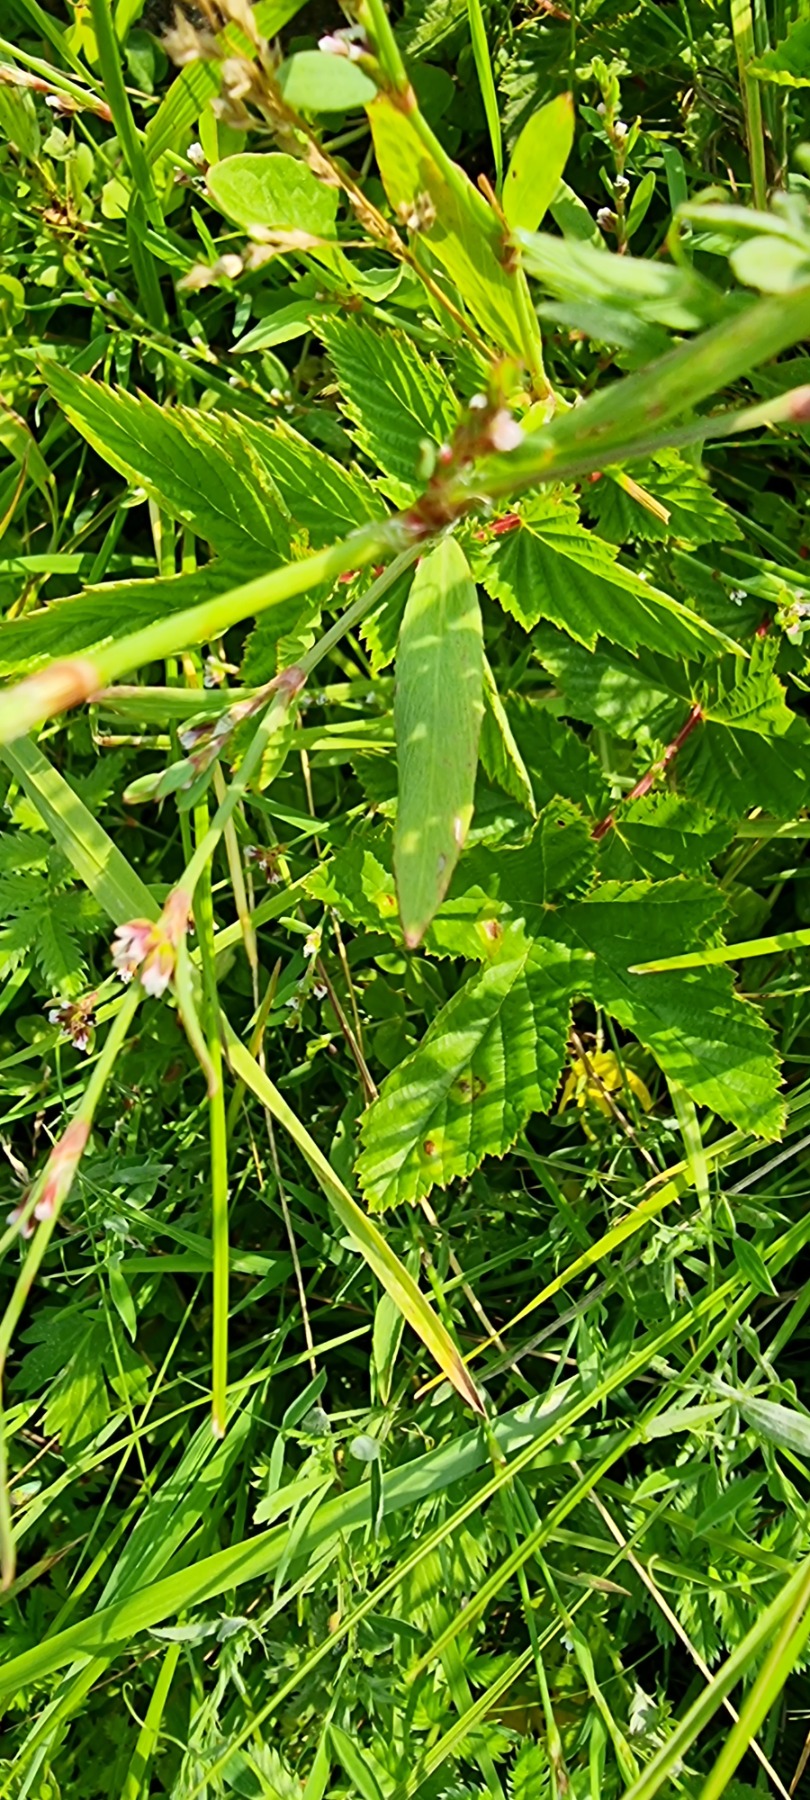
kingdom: Plantae
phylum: Tracheophyta
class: Magnoliopsida
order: Caryophyllales
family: Polygonaceae
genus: Polygonum
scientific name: Polygonum aviculare
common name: Vej-pileurt
